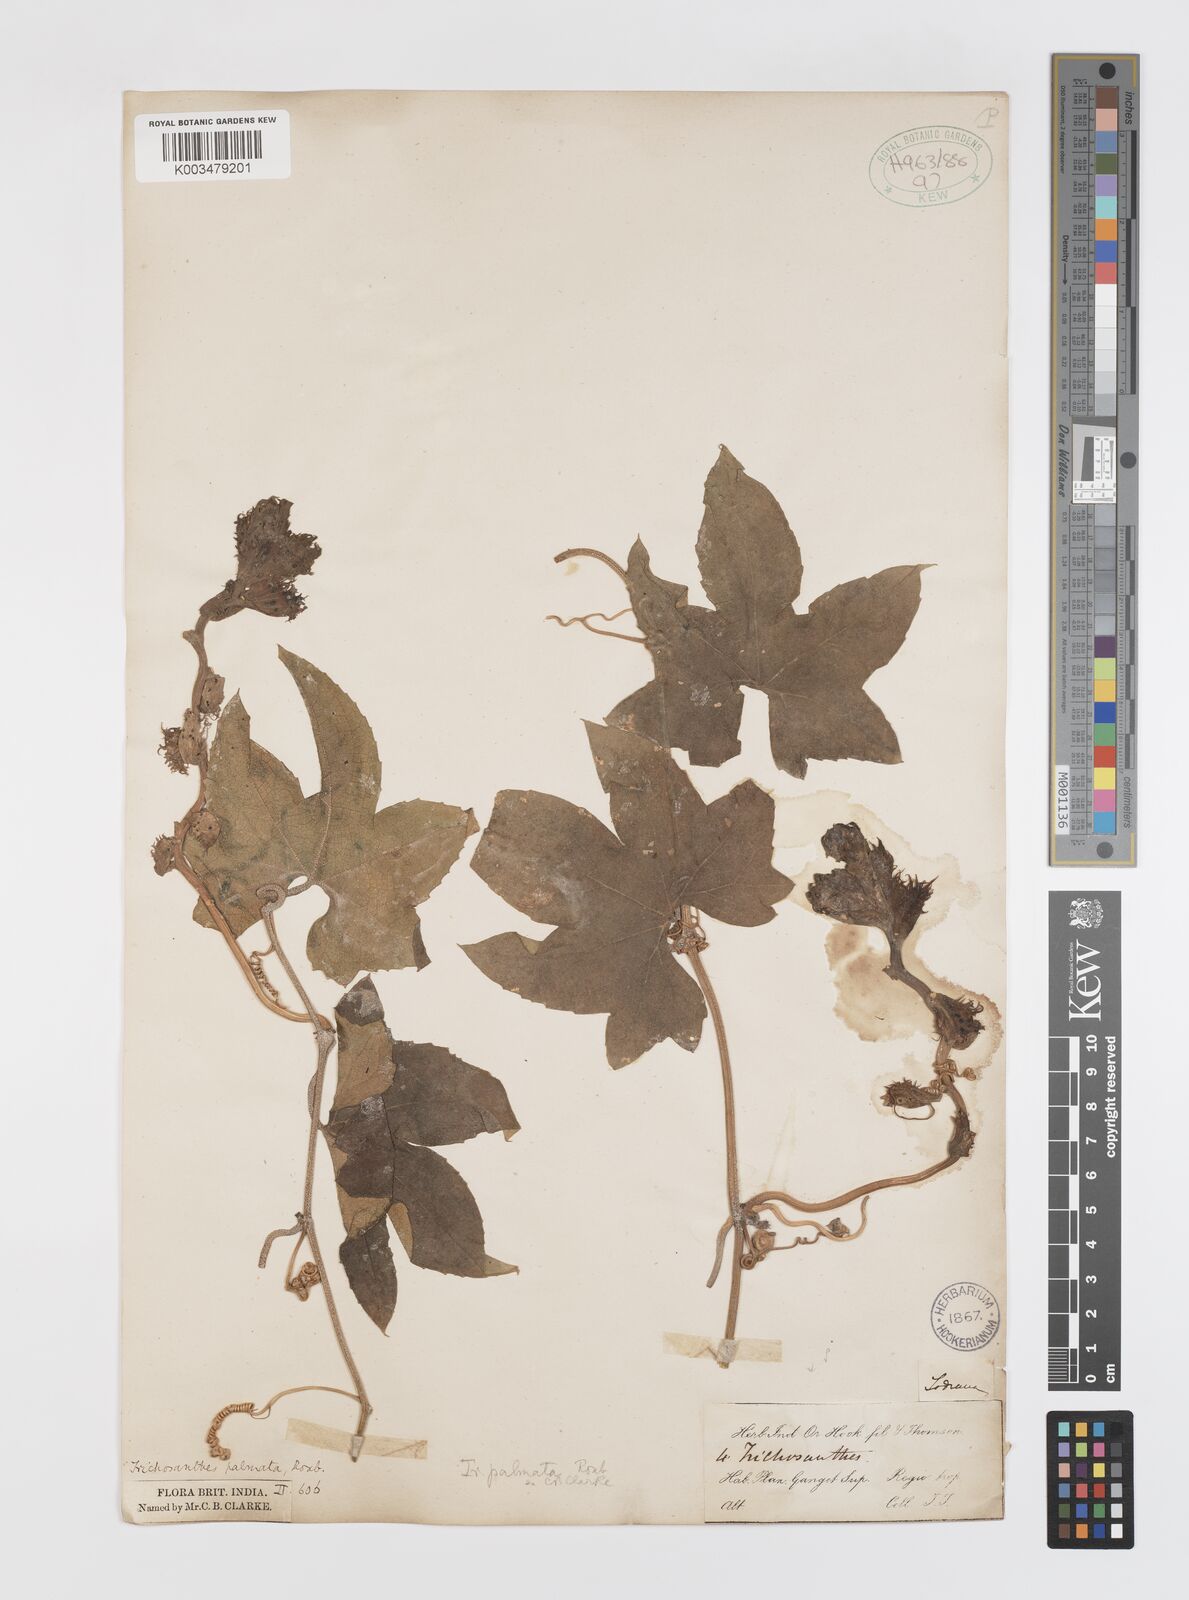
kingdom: Plantae
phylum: Tracheophyta
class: Magnoliopsida
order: Cucurbitales
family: Cucurbitaceae
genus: Trichosanthes
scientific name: Trichosanthes tricuspidata
